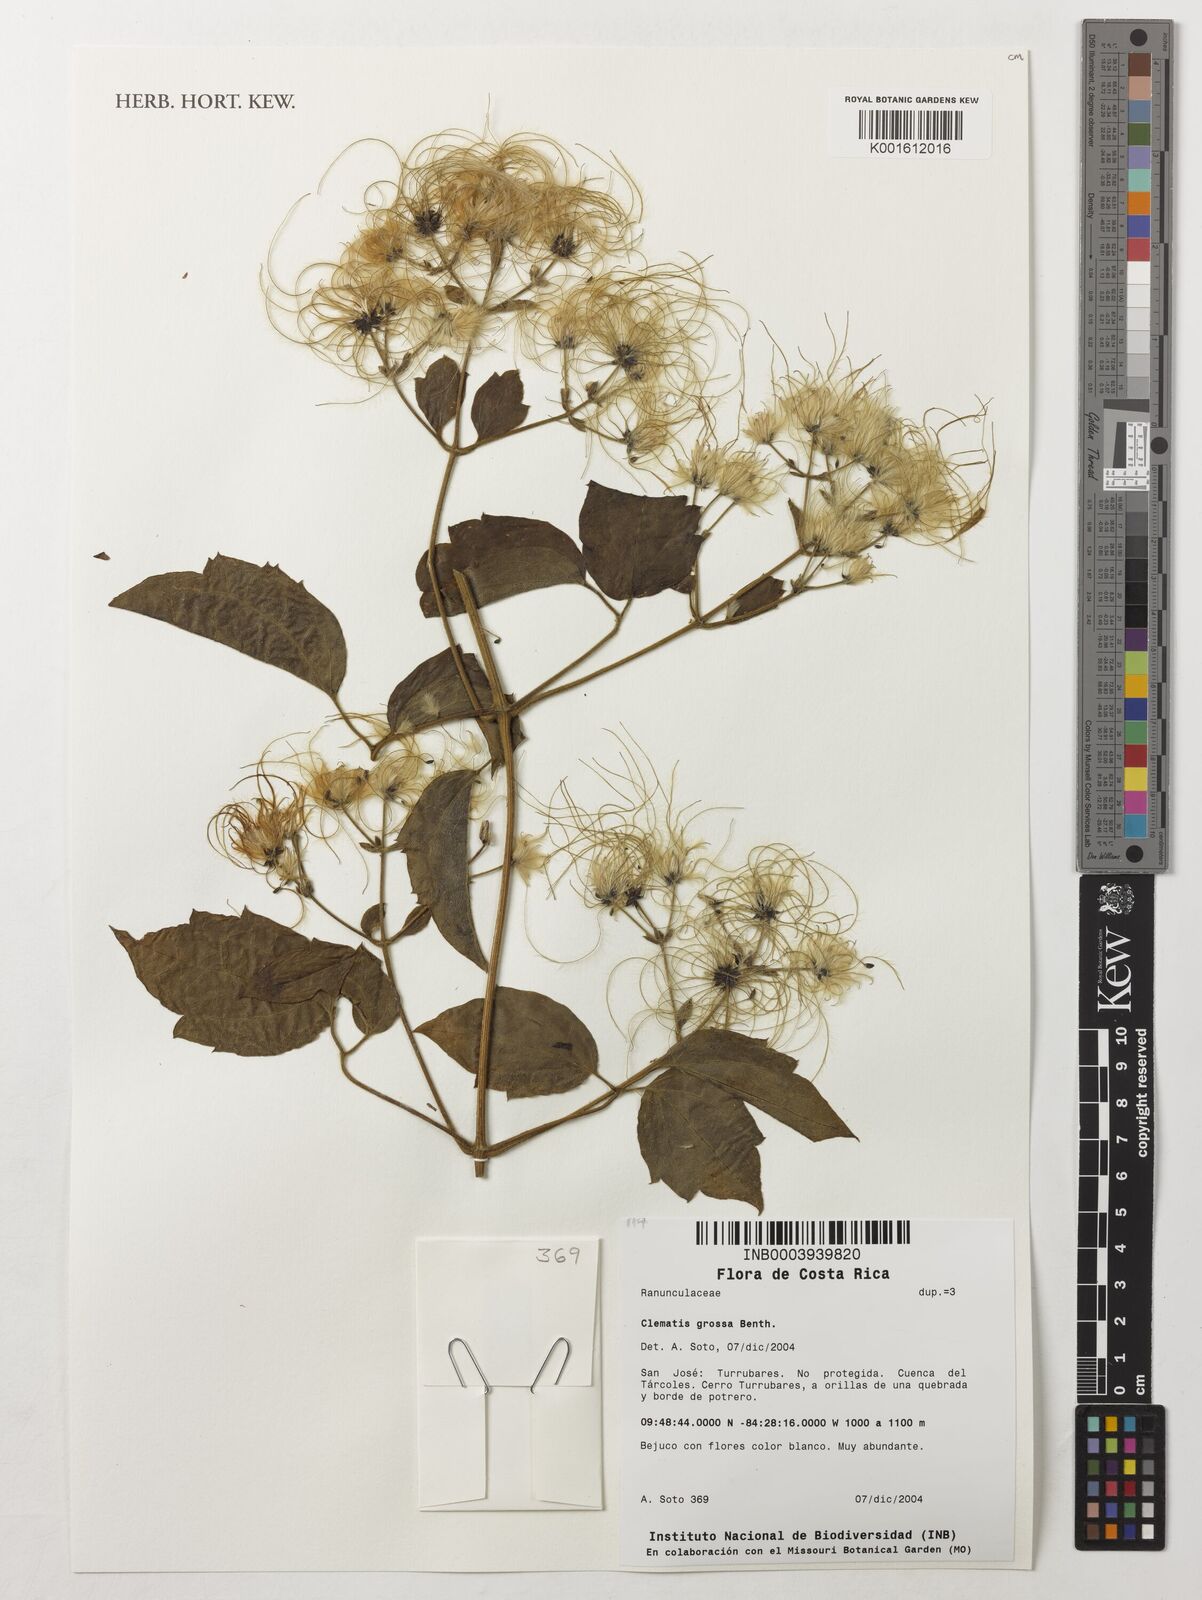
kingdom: Plantae
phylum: Tracheophyta
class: Magnoliopsida
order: Ranunculales
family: Ranunculaceae
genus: Clematis
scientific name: Clematis grossa
